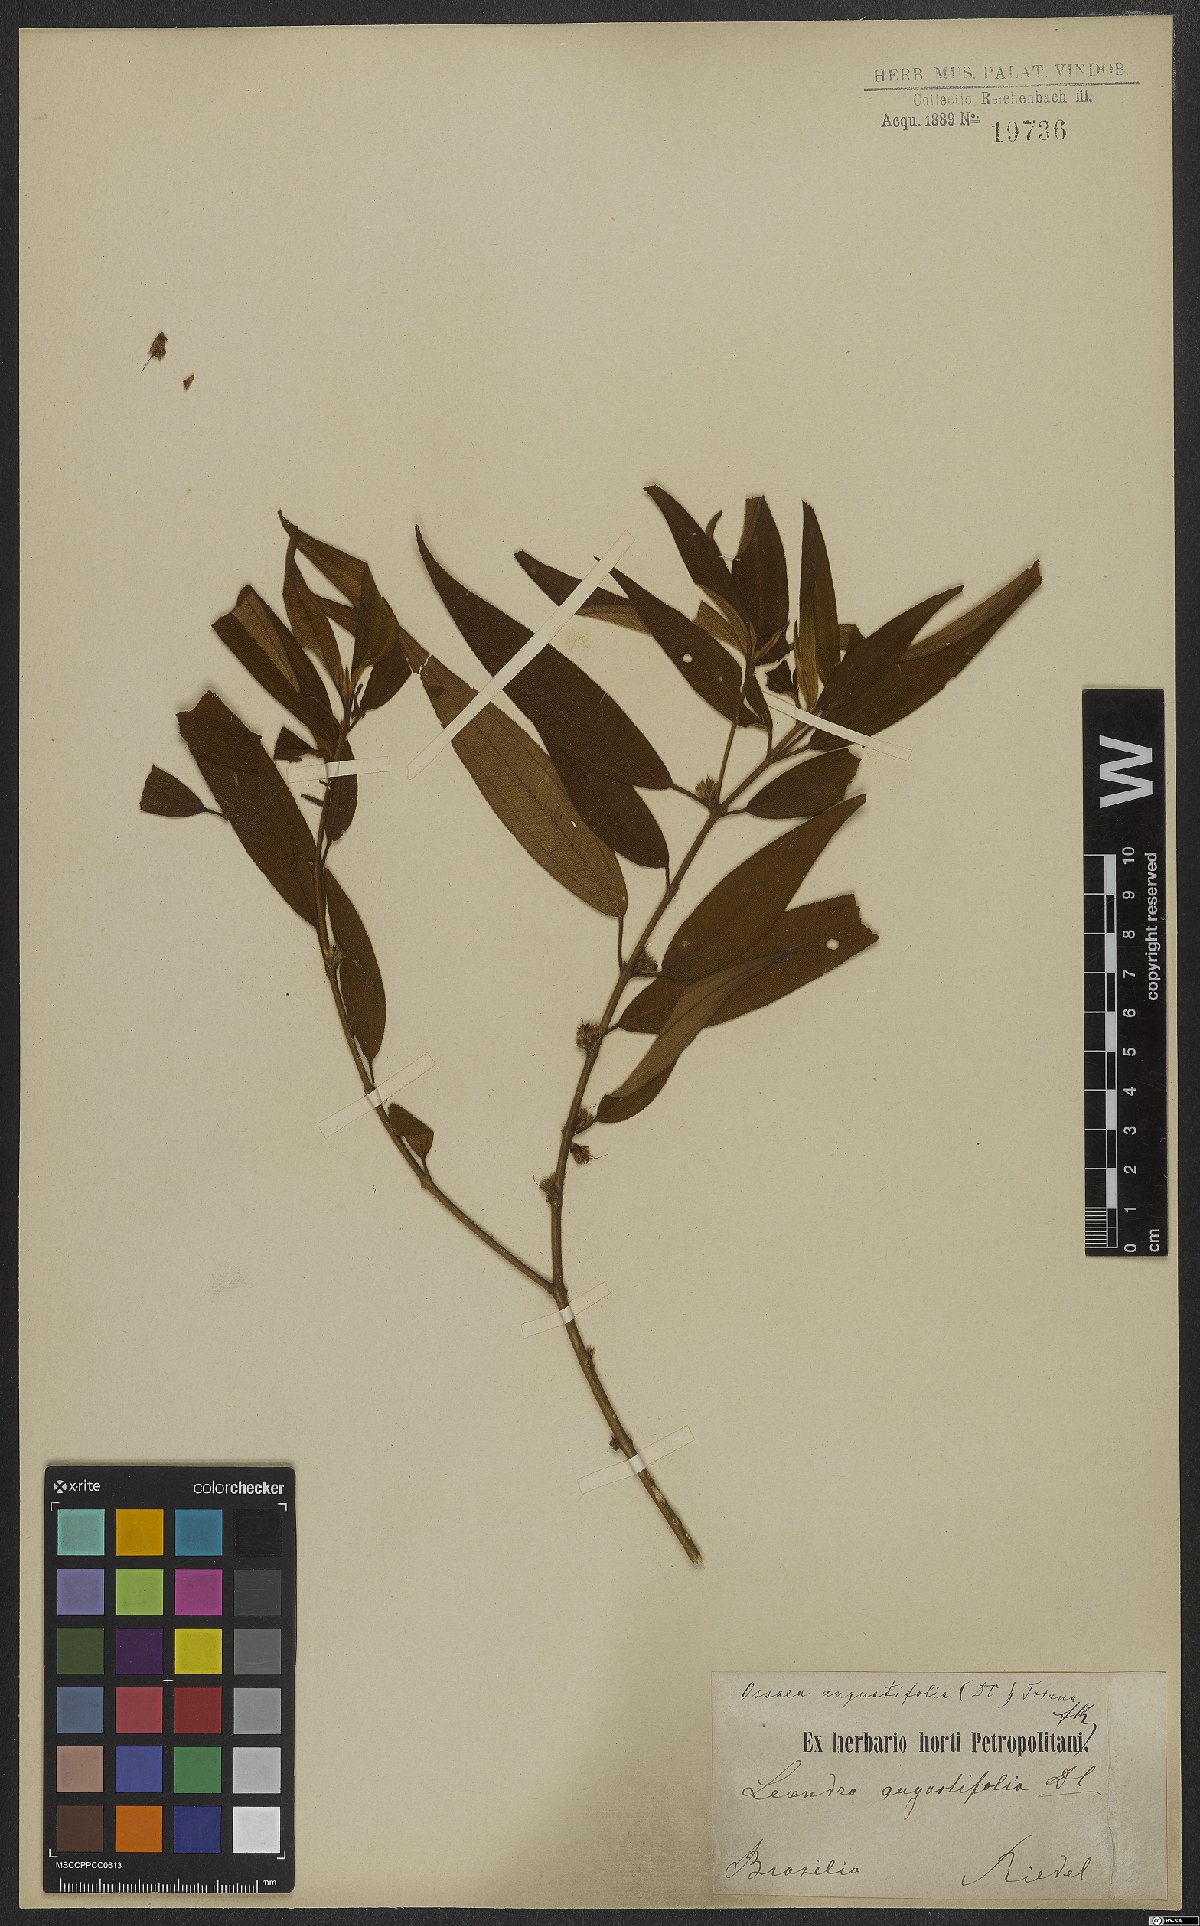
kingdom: Plantae
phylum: Tracheophyta
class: Magnoliopsida
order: Myrtales
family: Melastomataceae
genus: Miconia
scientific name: Miconia corcovadensis
